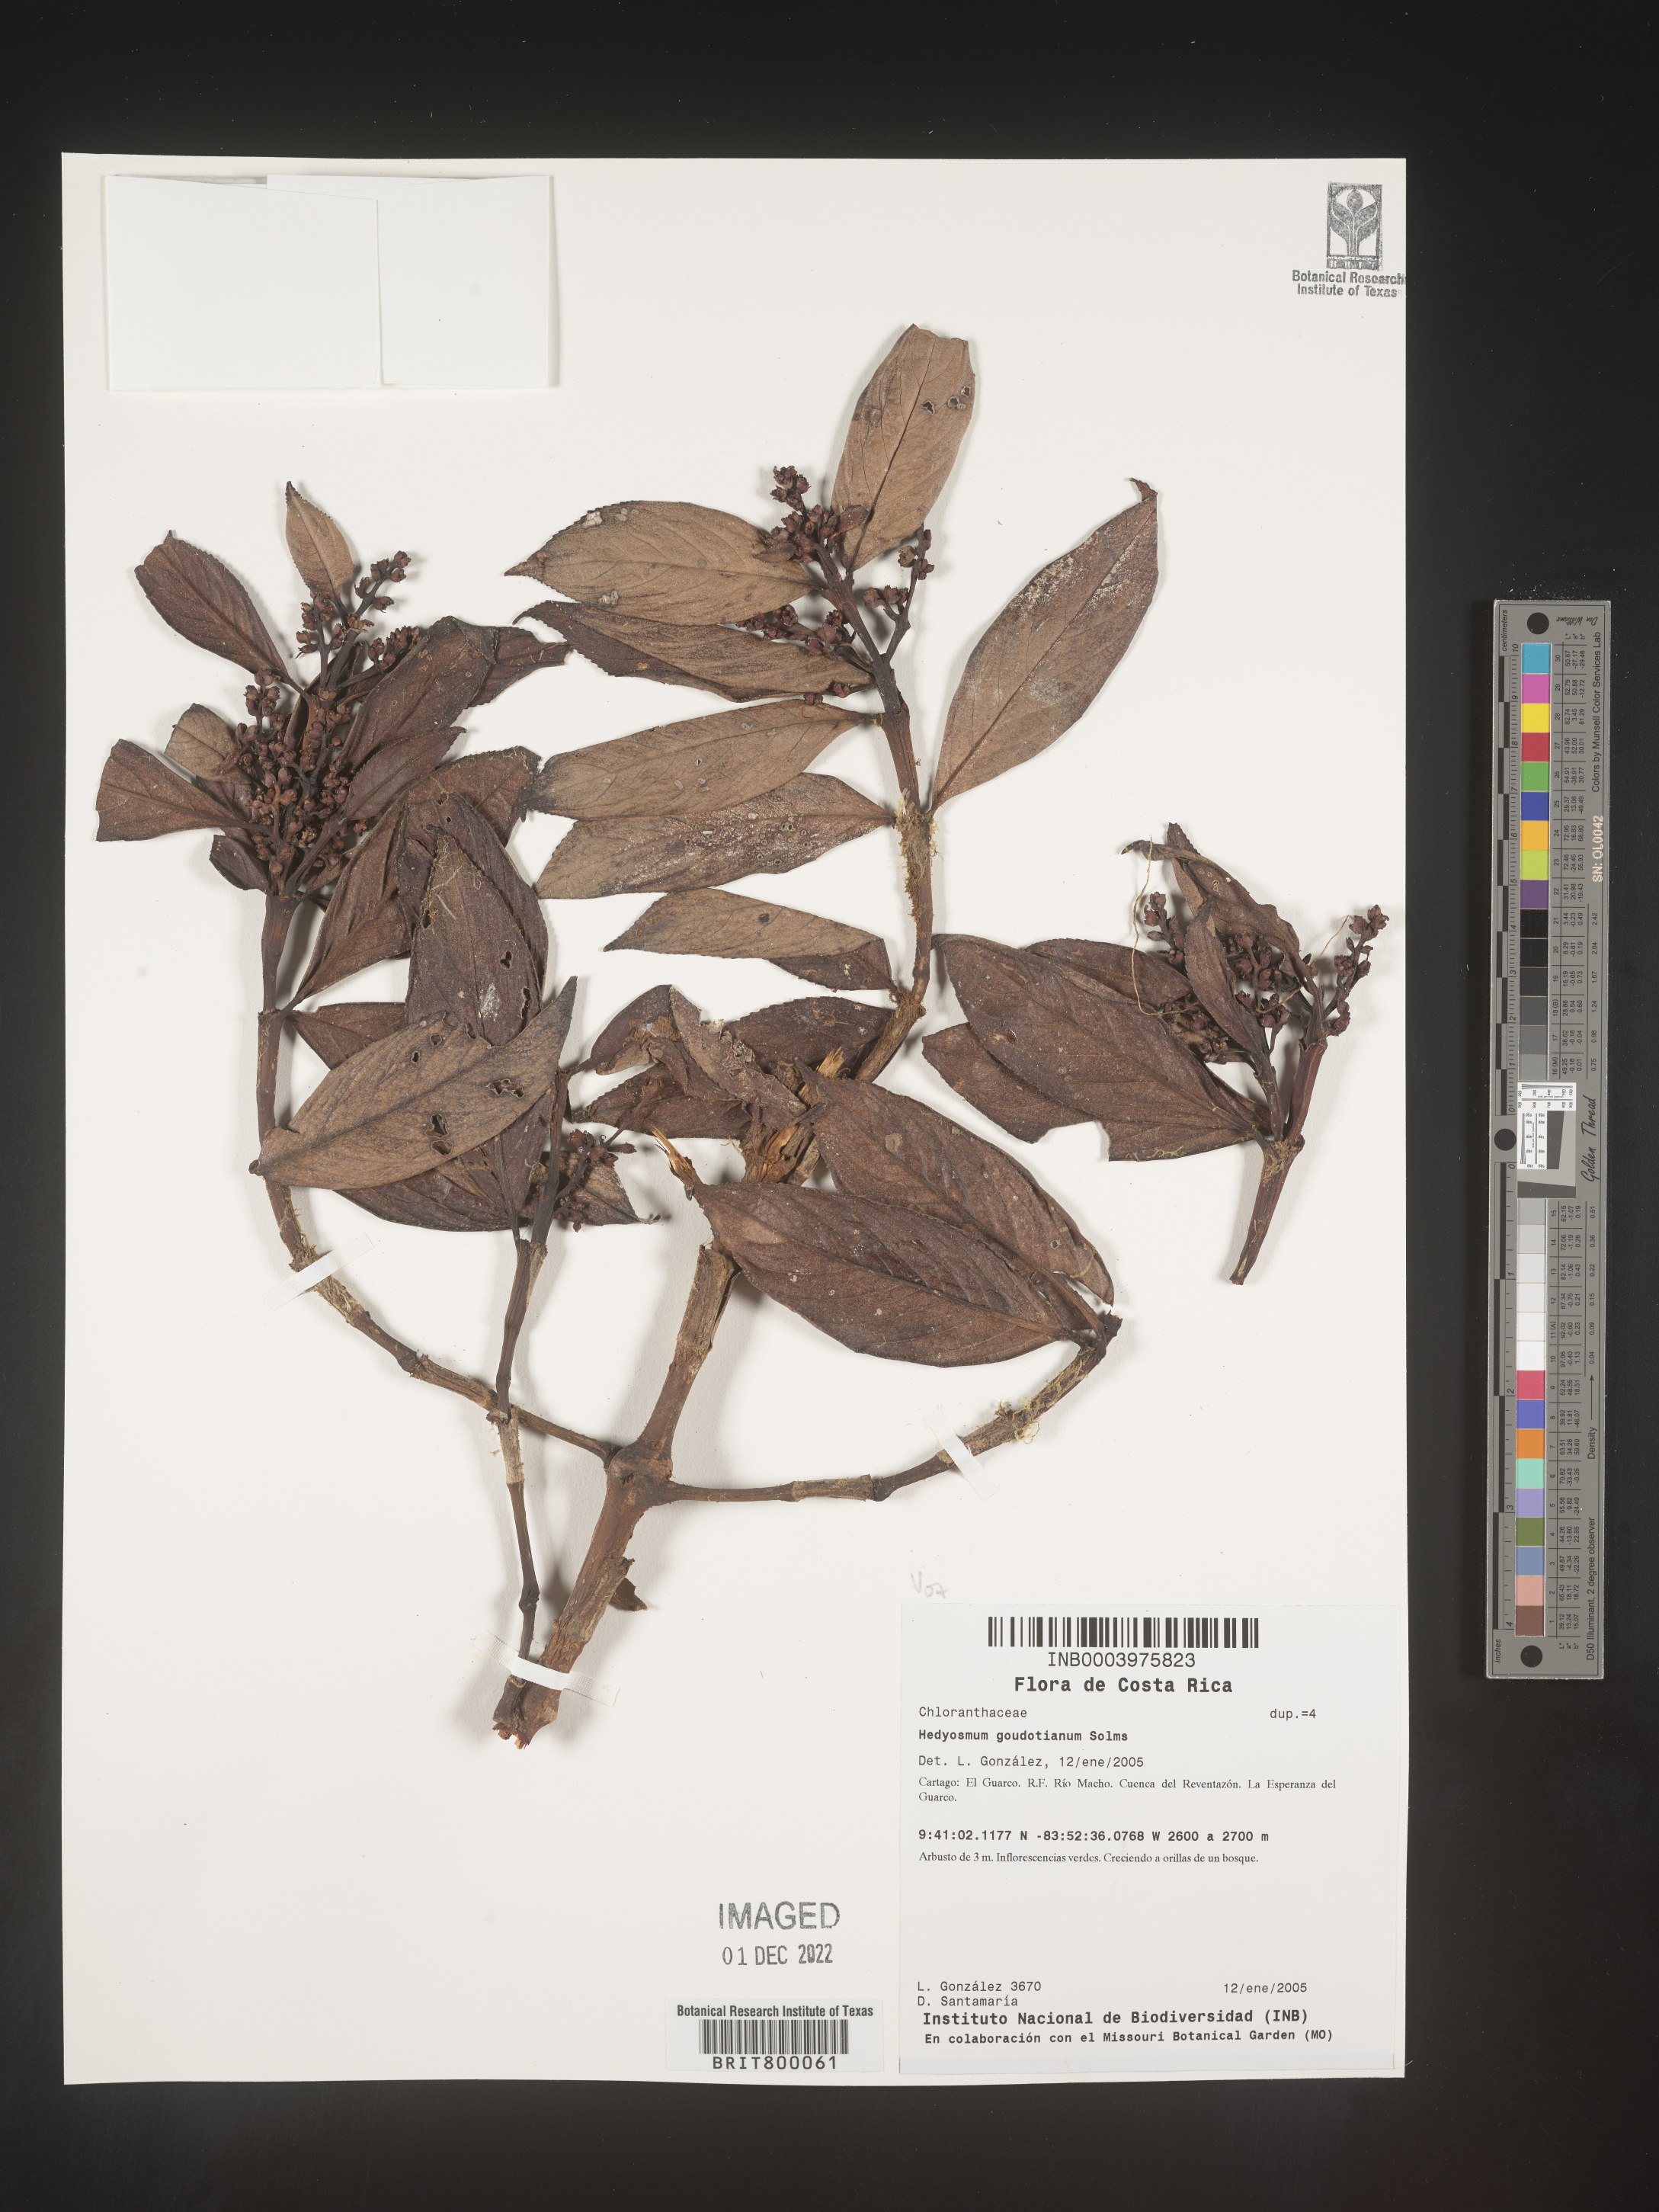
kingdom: Plantae
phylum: Tracheophyta
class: Magnoliopsida
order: Chloranthales
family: Chloranthaceae
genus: Hedyosmum
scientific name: Hedyosmum
